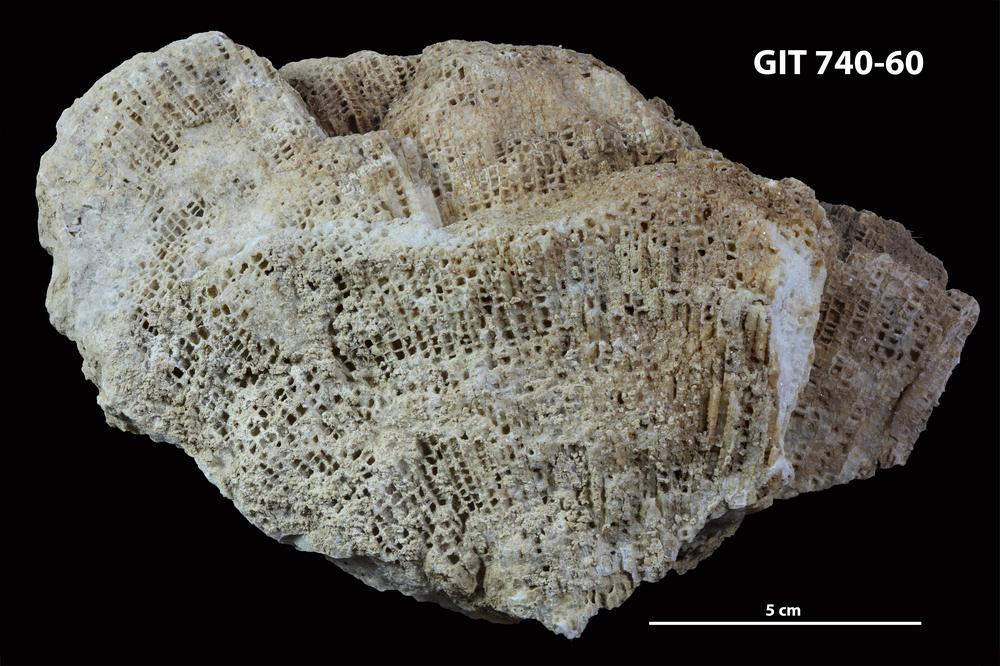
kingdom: Animalia
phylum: Cnidaria
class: Anthozoa
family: Favositidae
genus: Paleofavosites
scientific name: Paleofavosites
